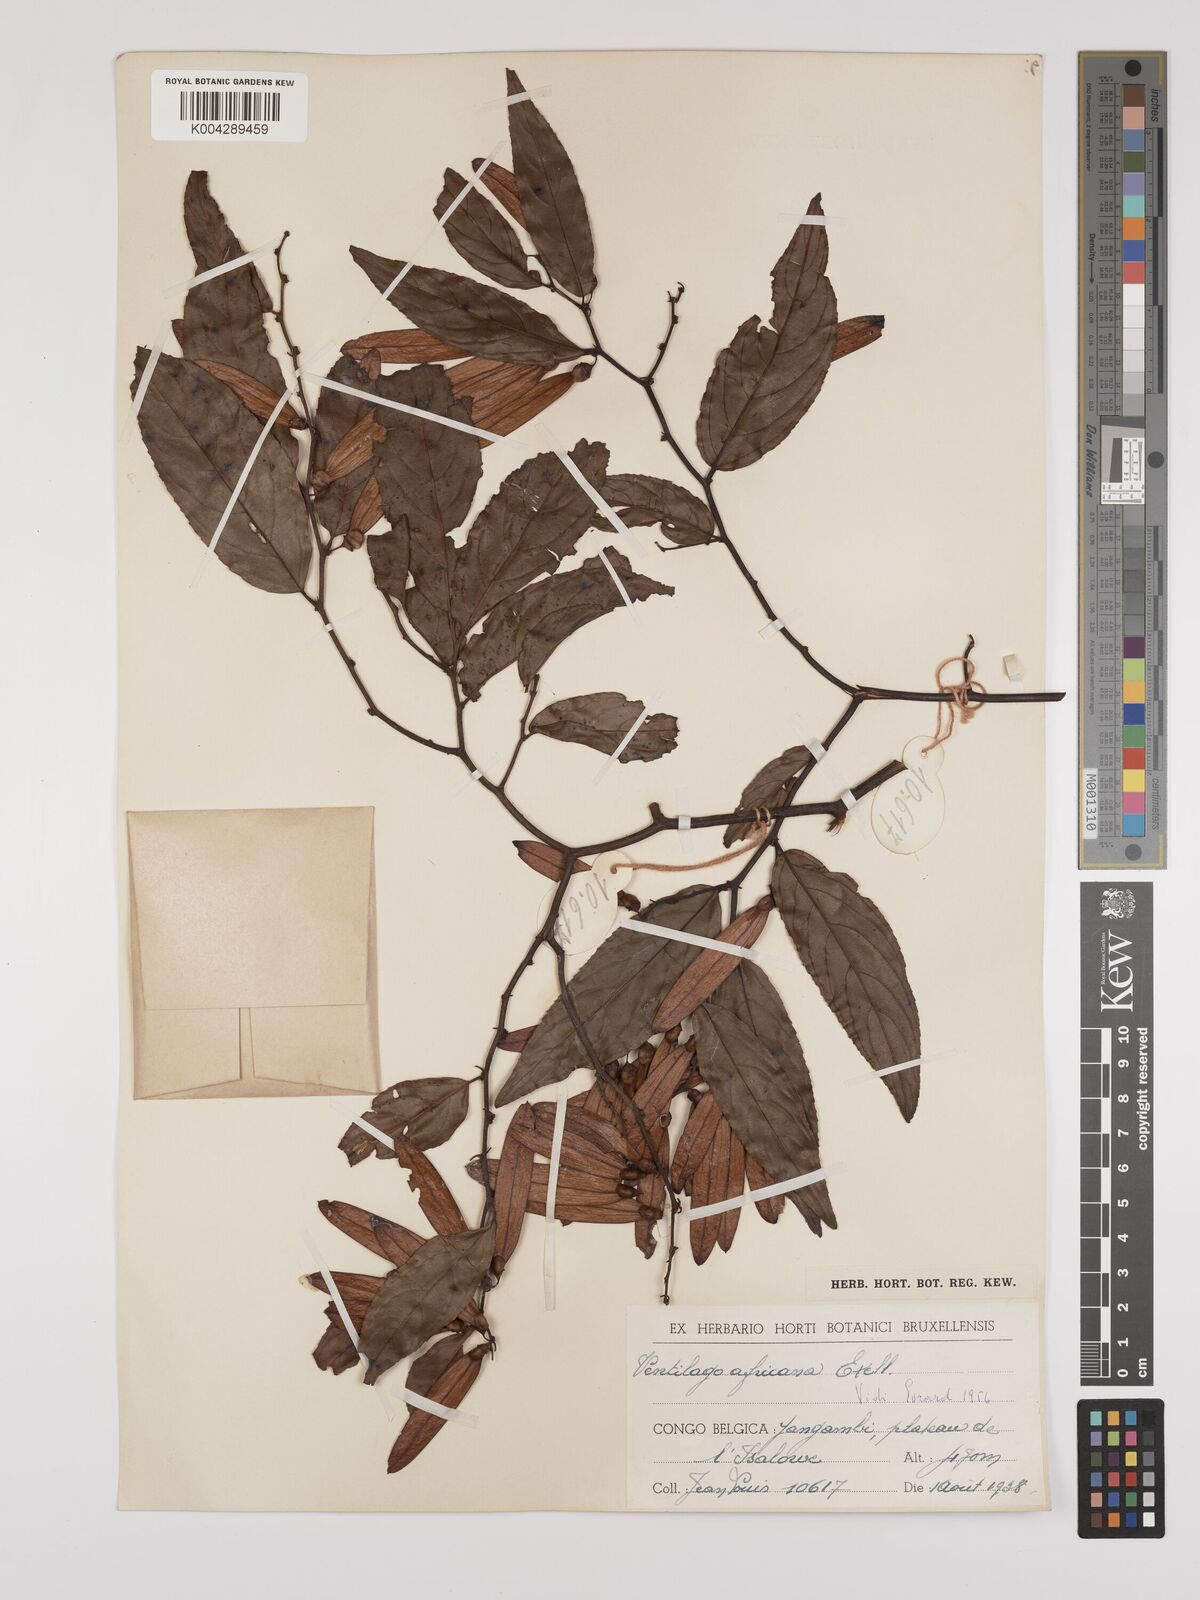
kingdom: Plantae
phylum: Tracheophyta
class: Magnoliopsida
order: Rosales
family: Rhamnaceae
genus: Ventilago
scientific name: Ventilago africana
